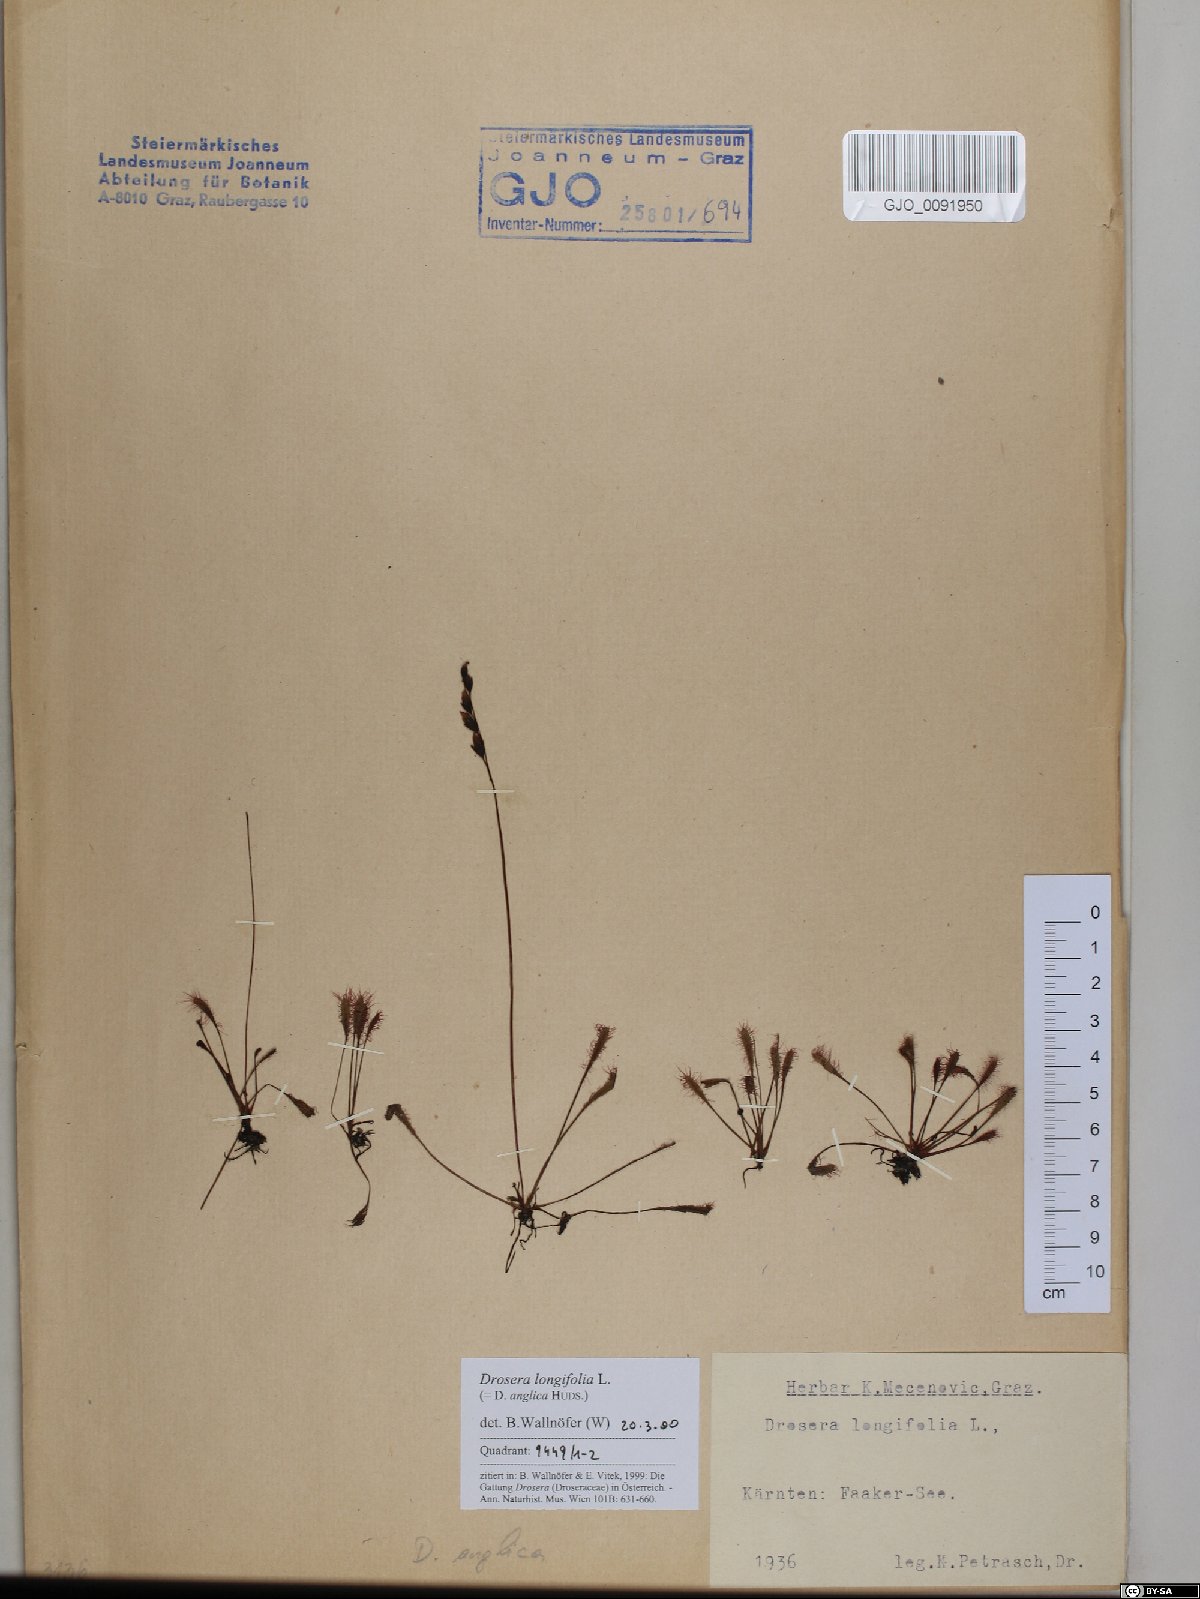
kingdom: Plantae
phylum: Tracheophyta
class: Magnoliopsida
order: Caryophyllales
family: Droseraceae
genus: Drosera
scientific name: Drosera anglica
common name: Great sundew
